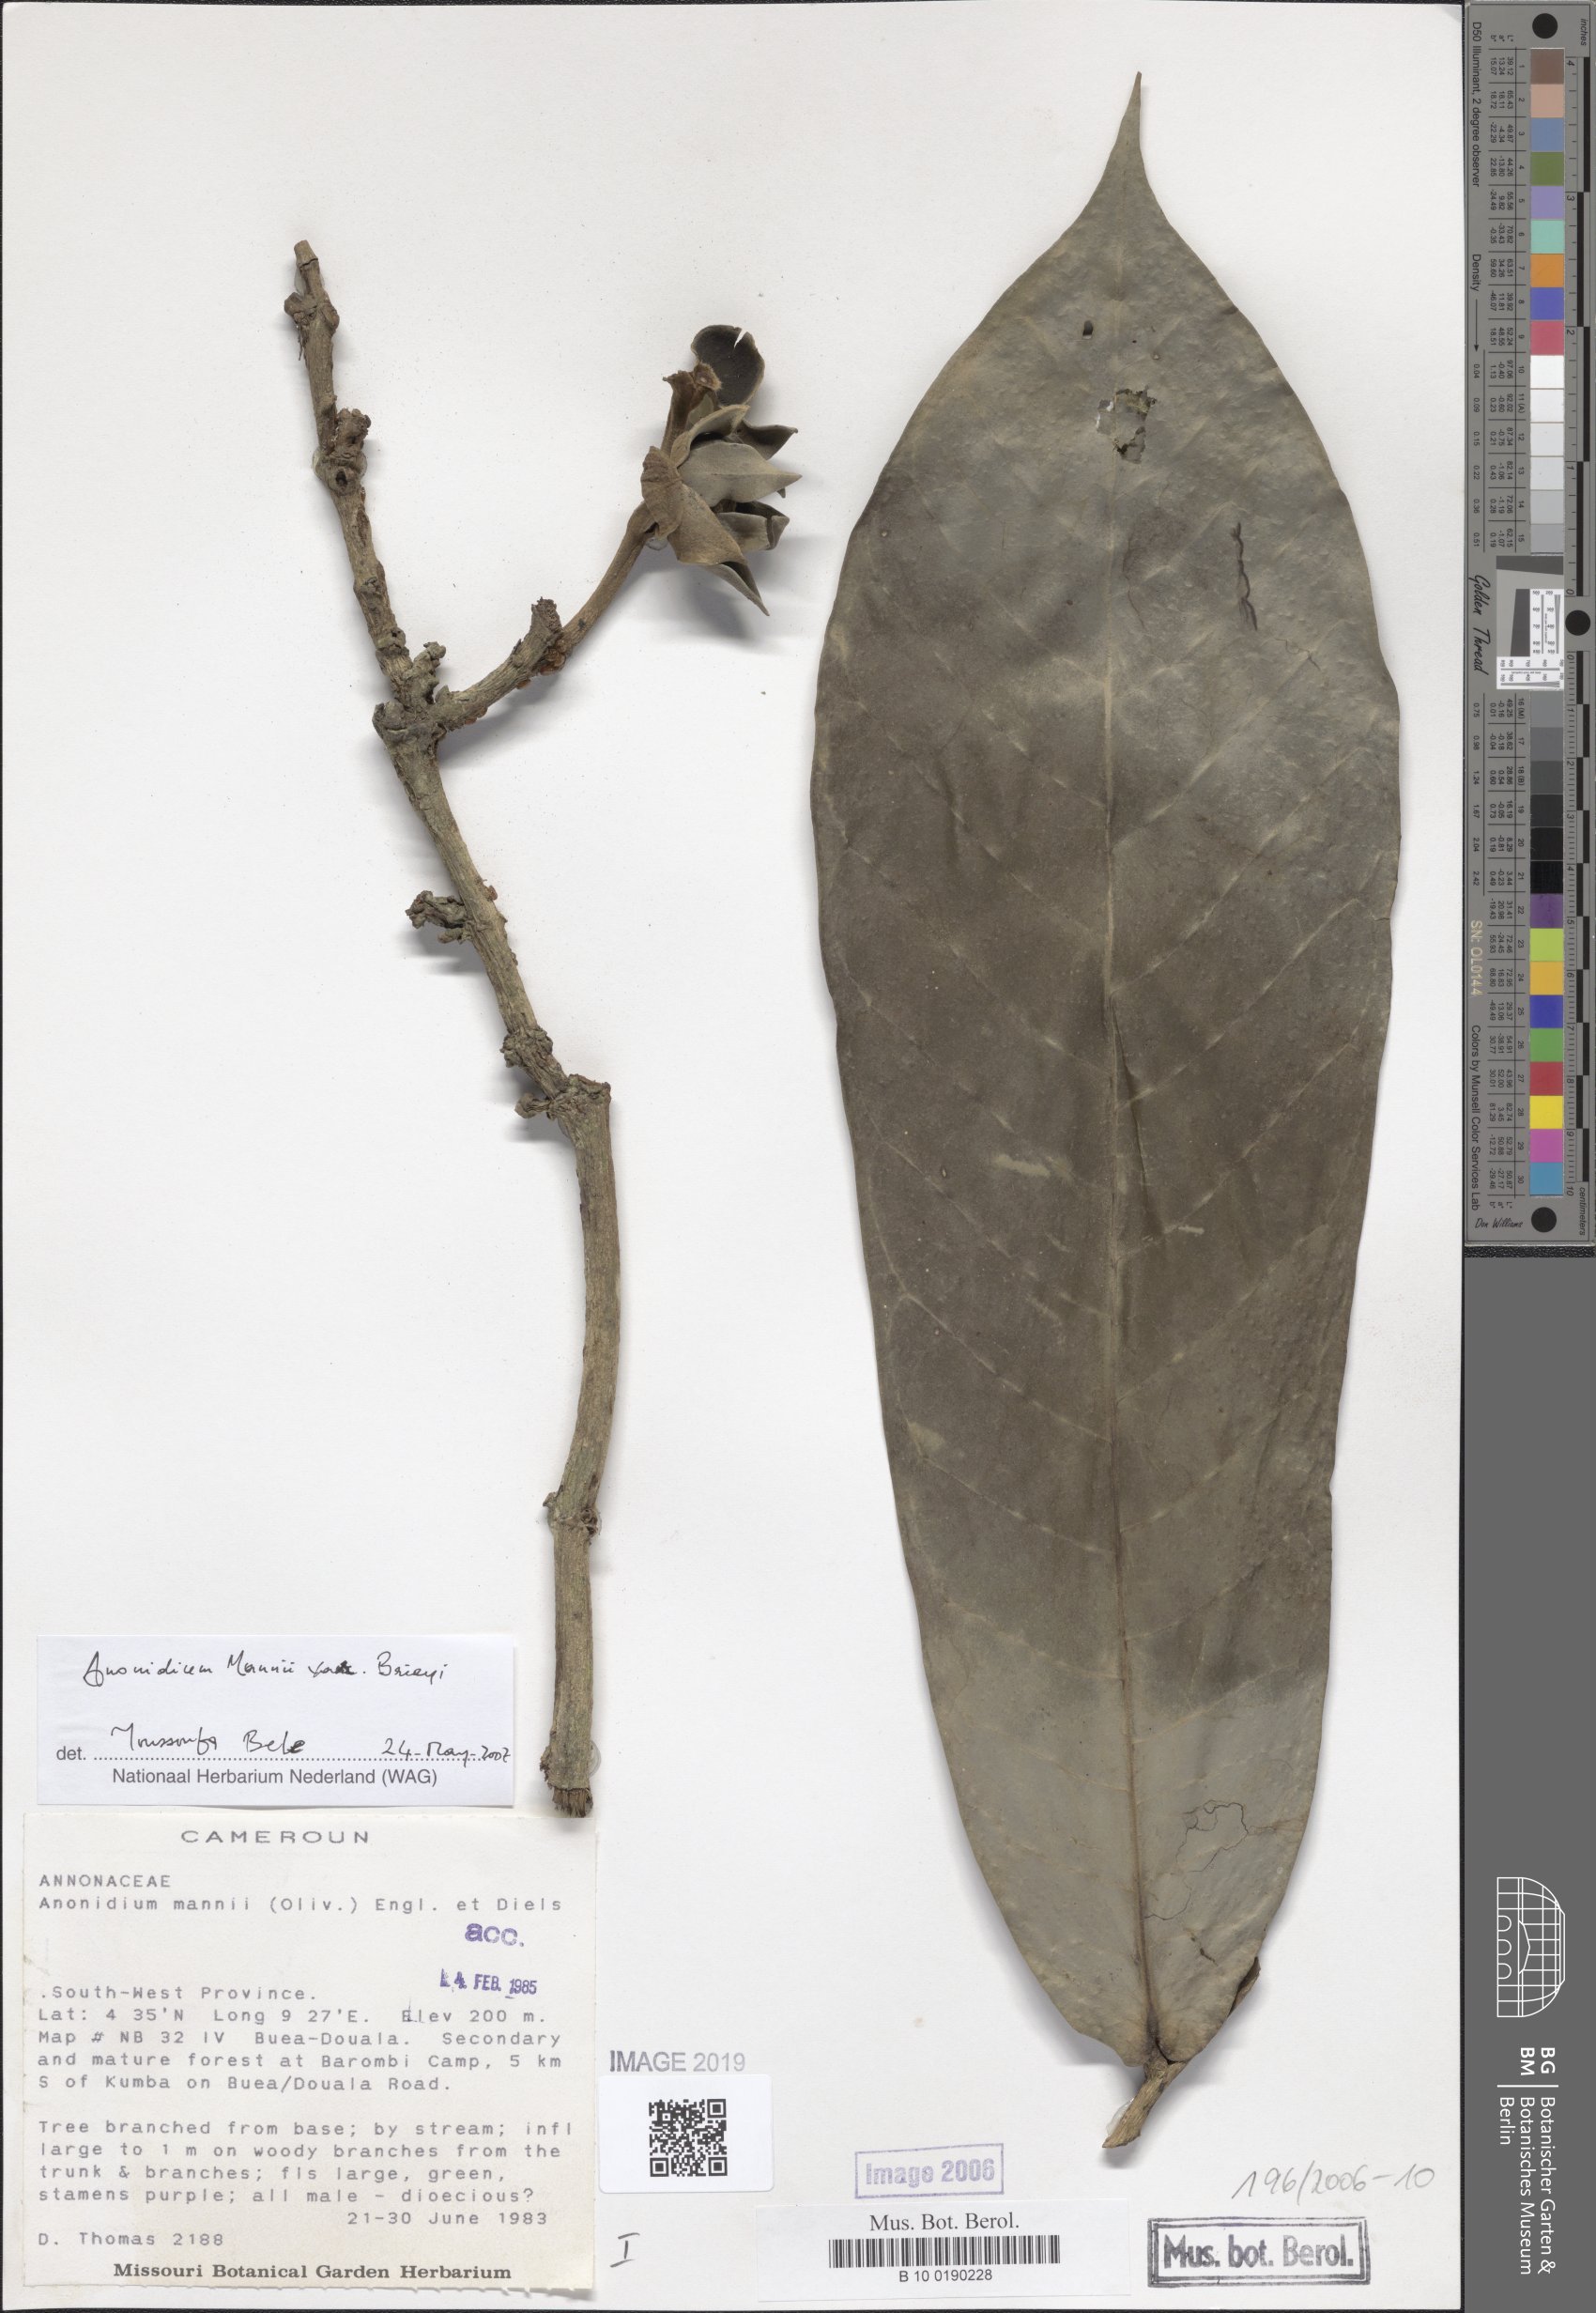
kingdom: Plantae
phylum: Tracheophyta
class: Magnoliopsida
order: Magnoliales
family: Annonaceae
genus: Anonidium
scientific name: Anonidium mannii
